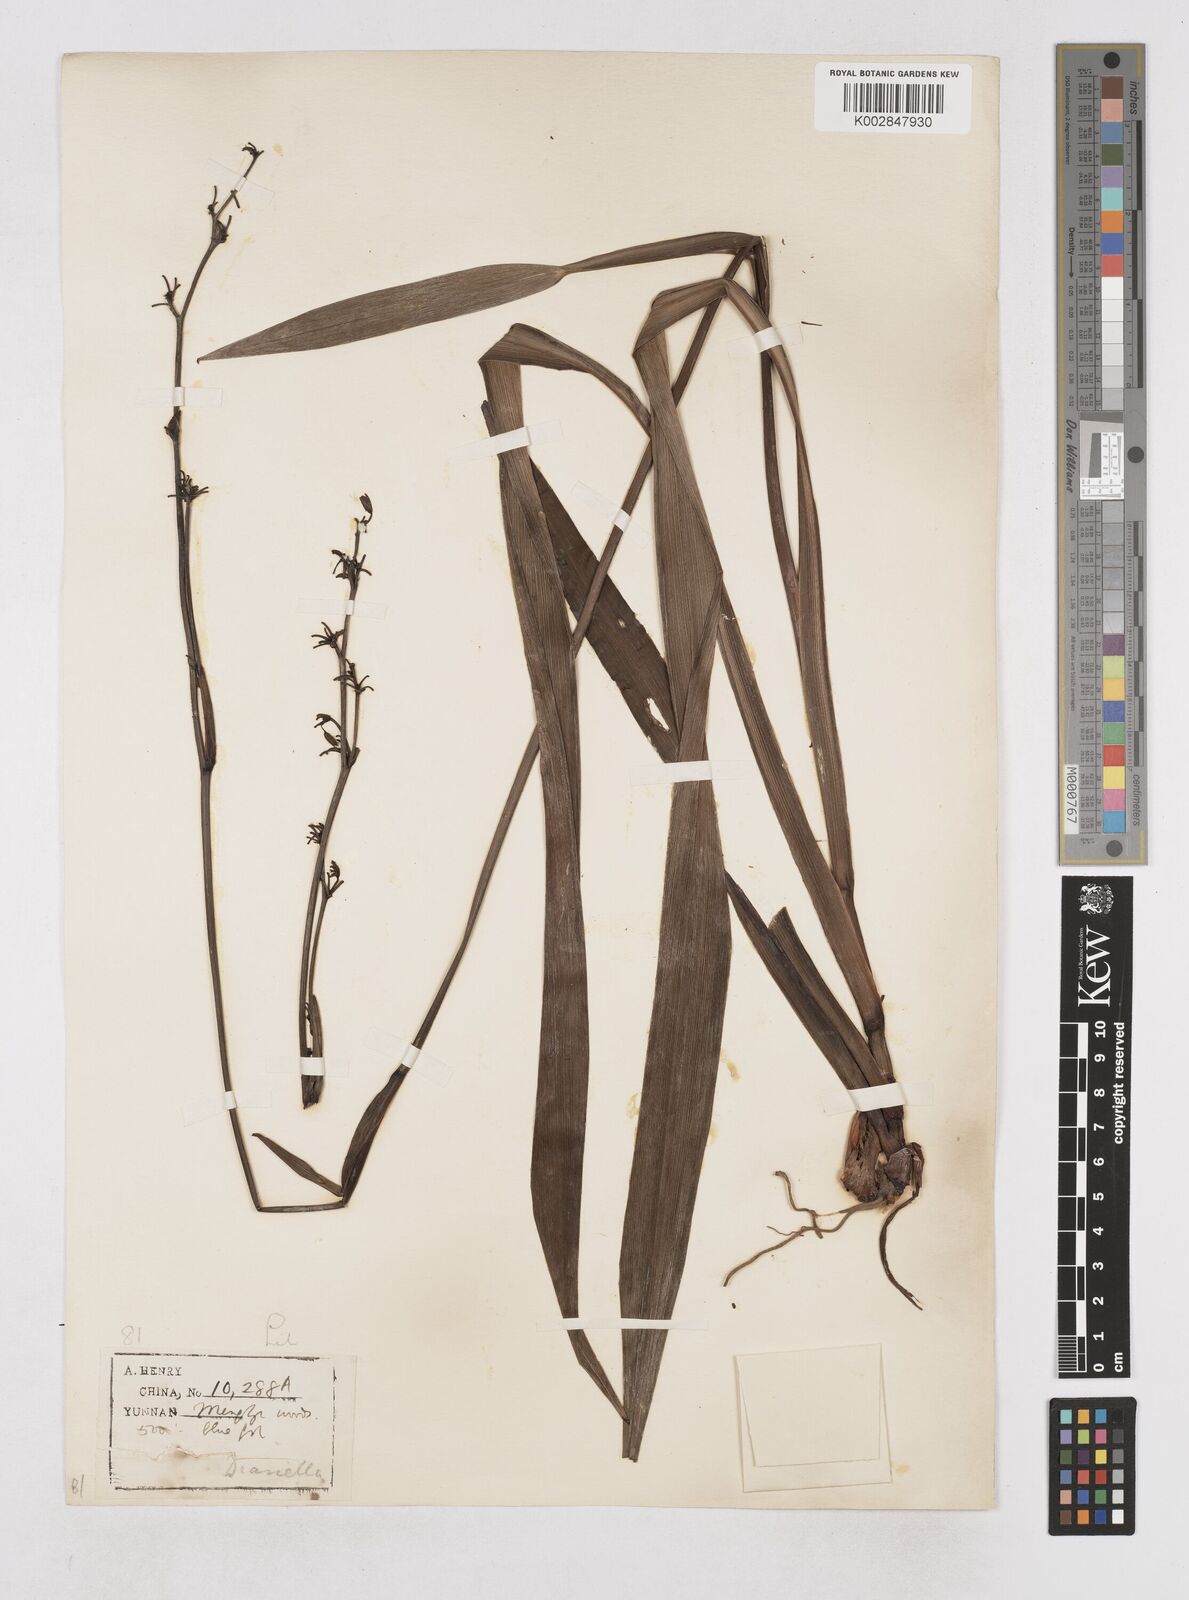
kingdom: Plantae
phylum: Tracheophyta
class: Liliopsida
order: Asparagales
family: Asphodelaceae
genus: Dianella
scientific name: Dianella ensifolia
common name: New zealand lilyplant
